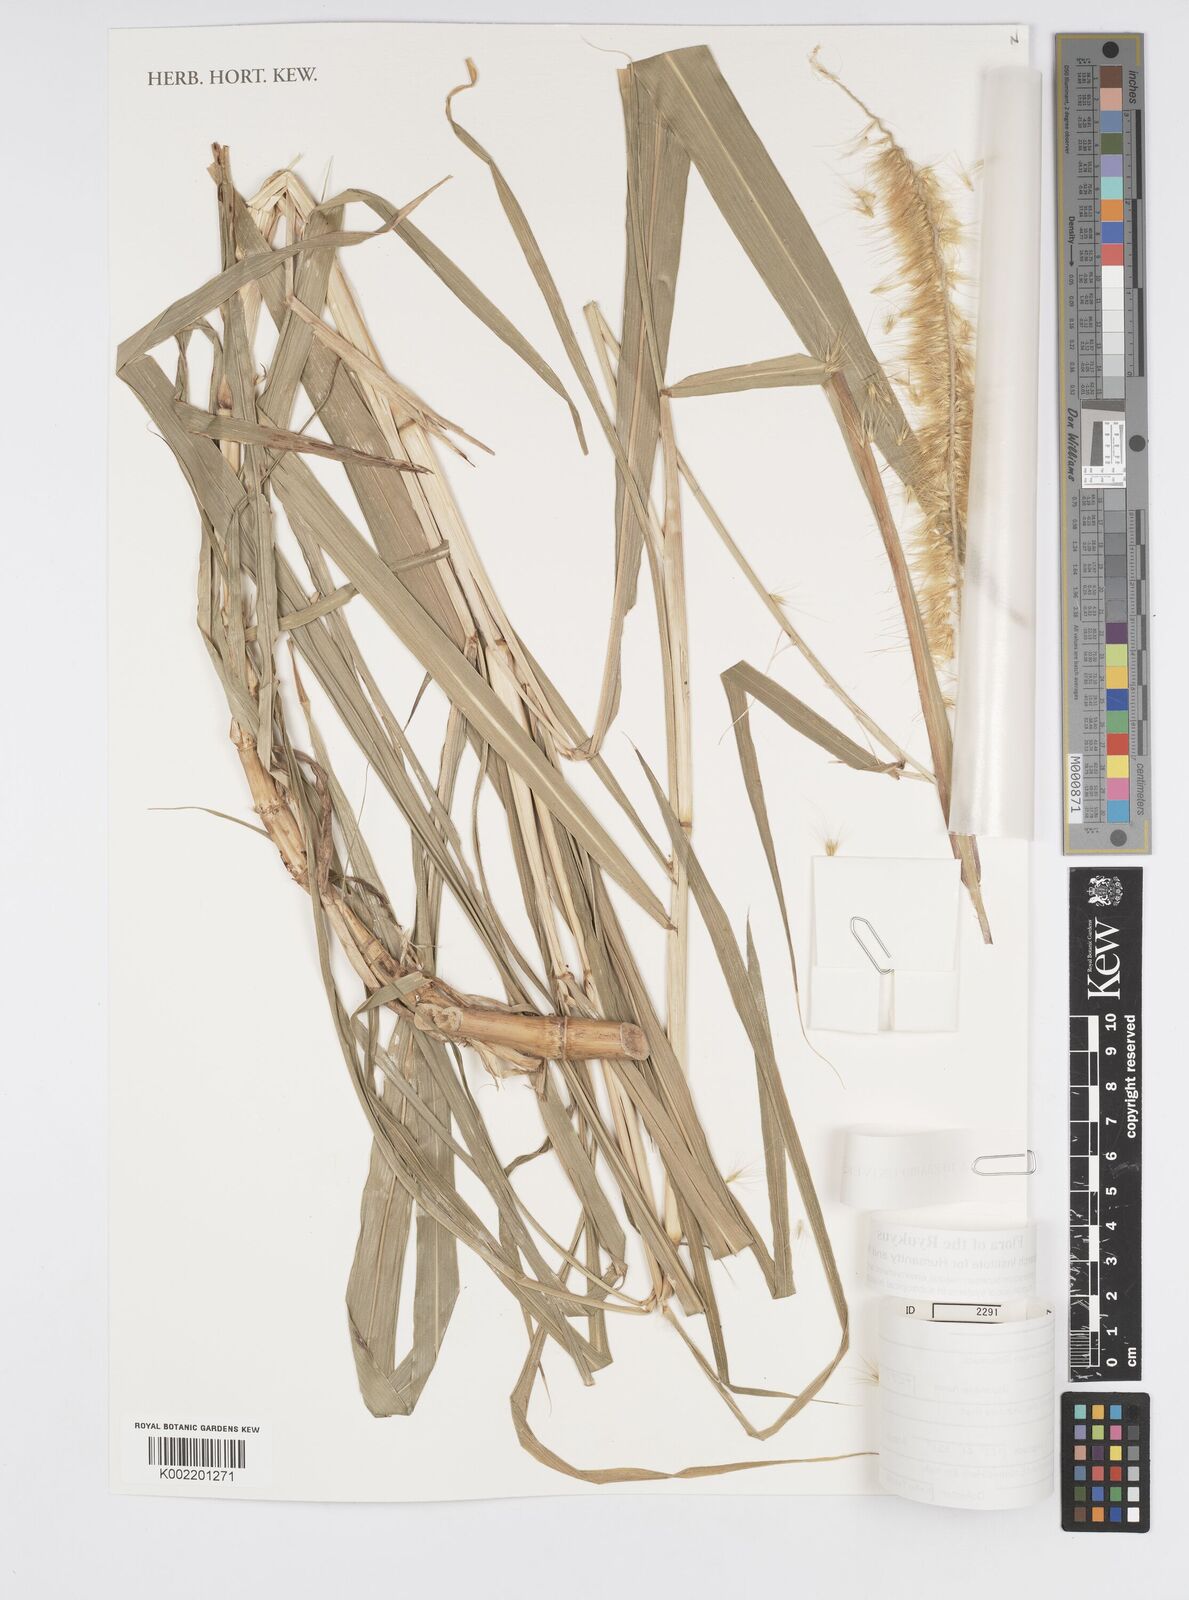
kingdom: Plantae
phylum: Tracheophyta
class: Liliopsida
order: Poales
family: Poaceae
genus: Cenchrus
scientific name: Cenchrus purpureus
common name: Elephant grass
